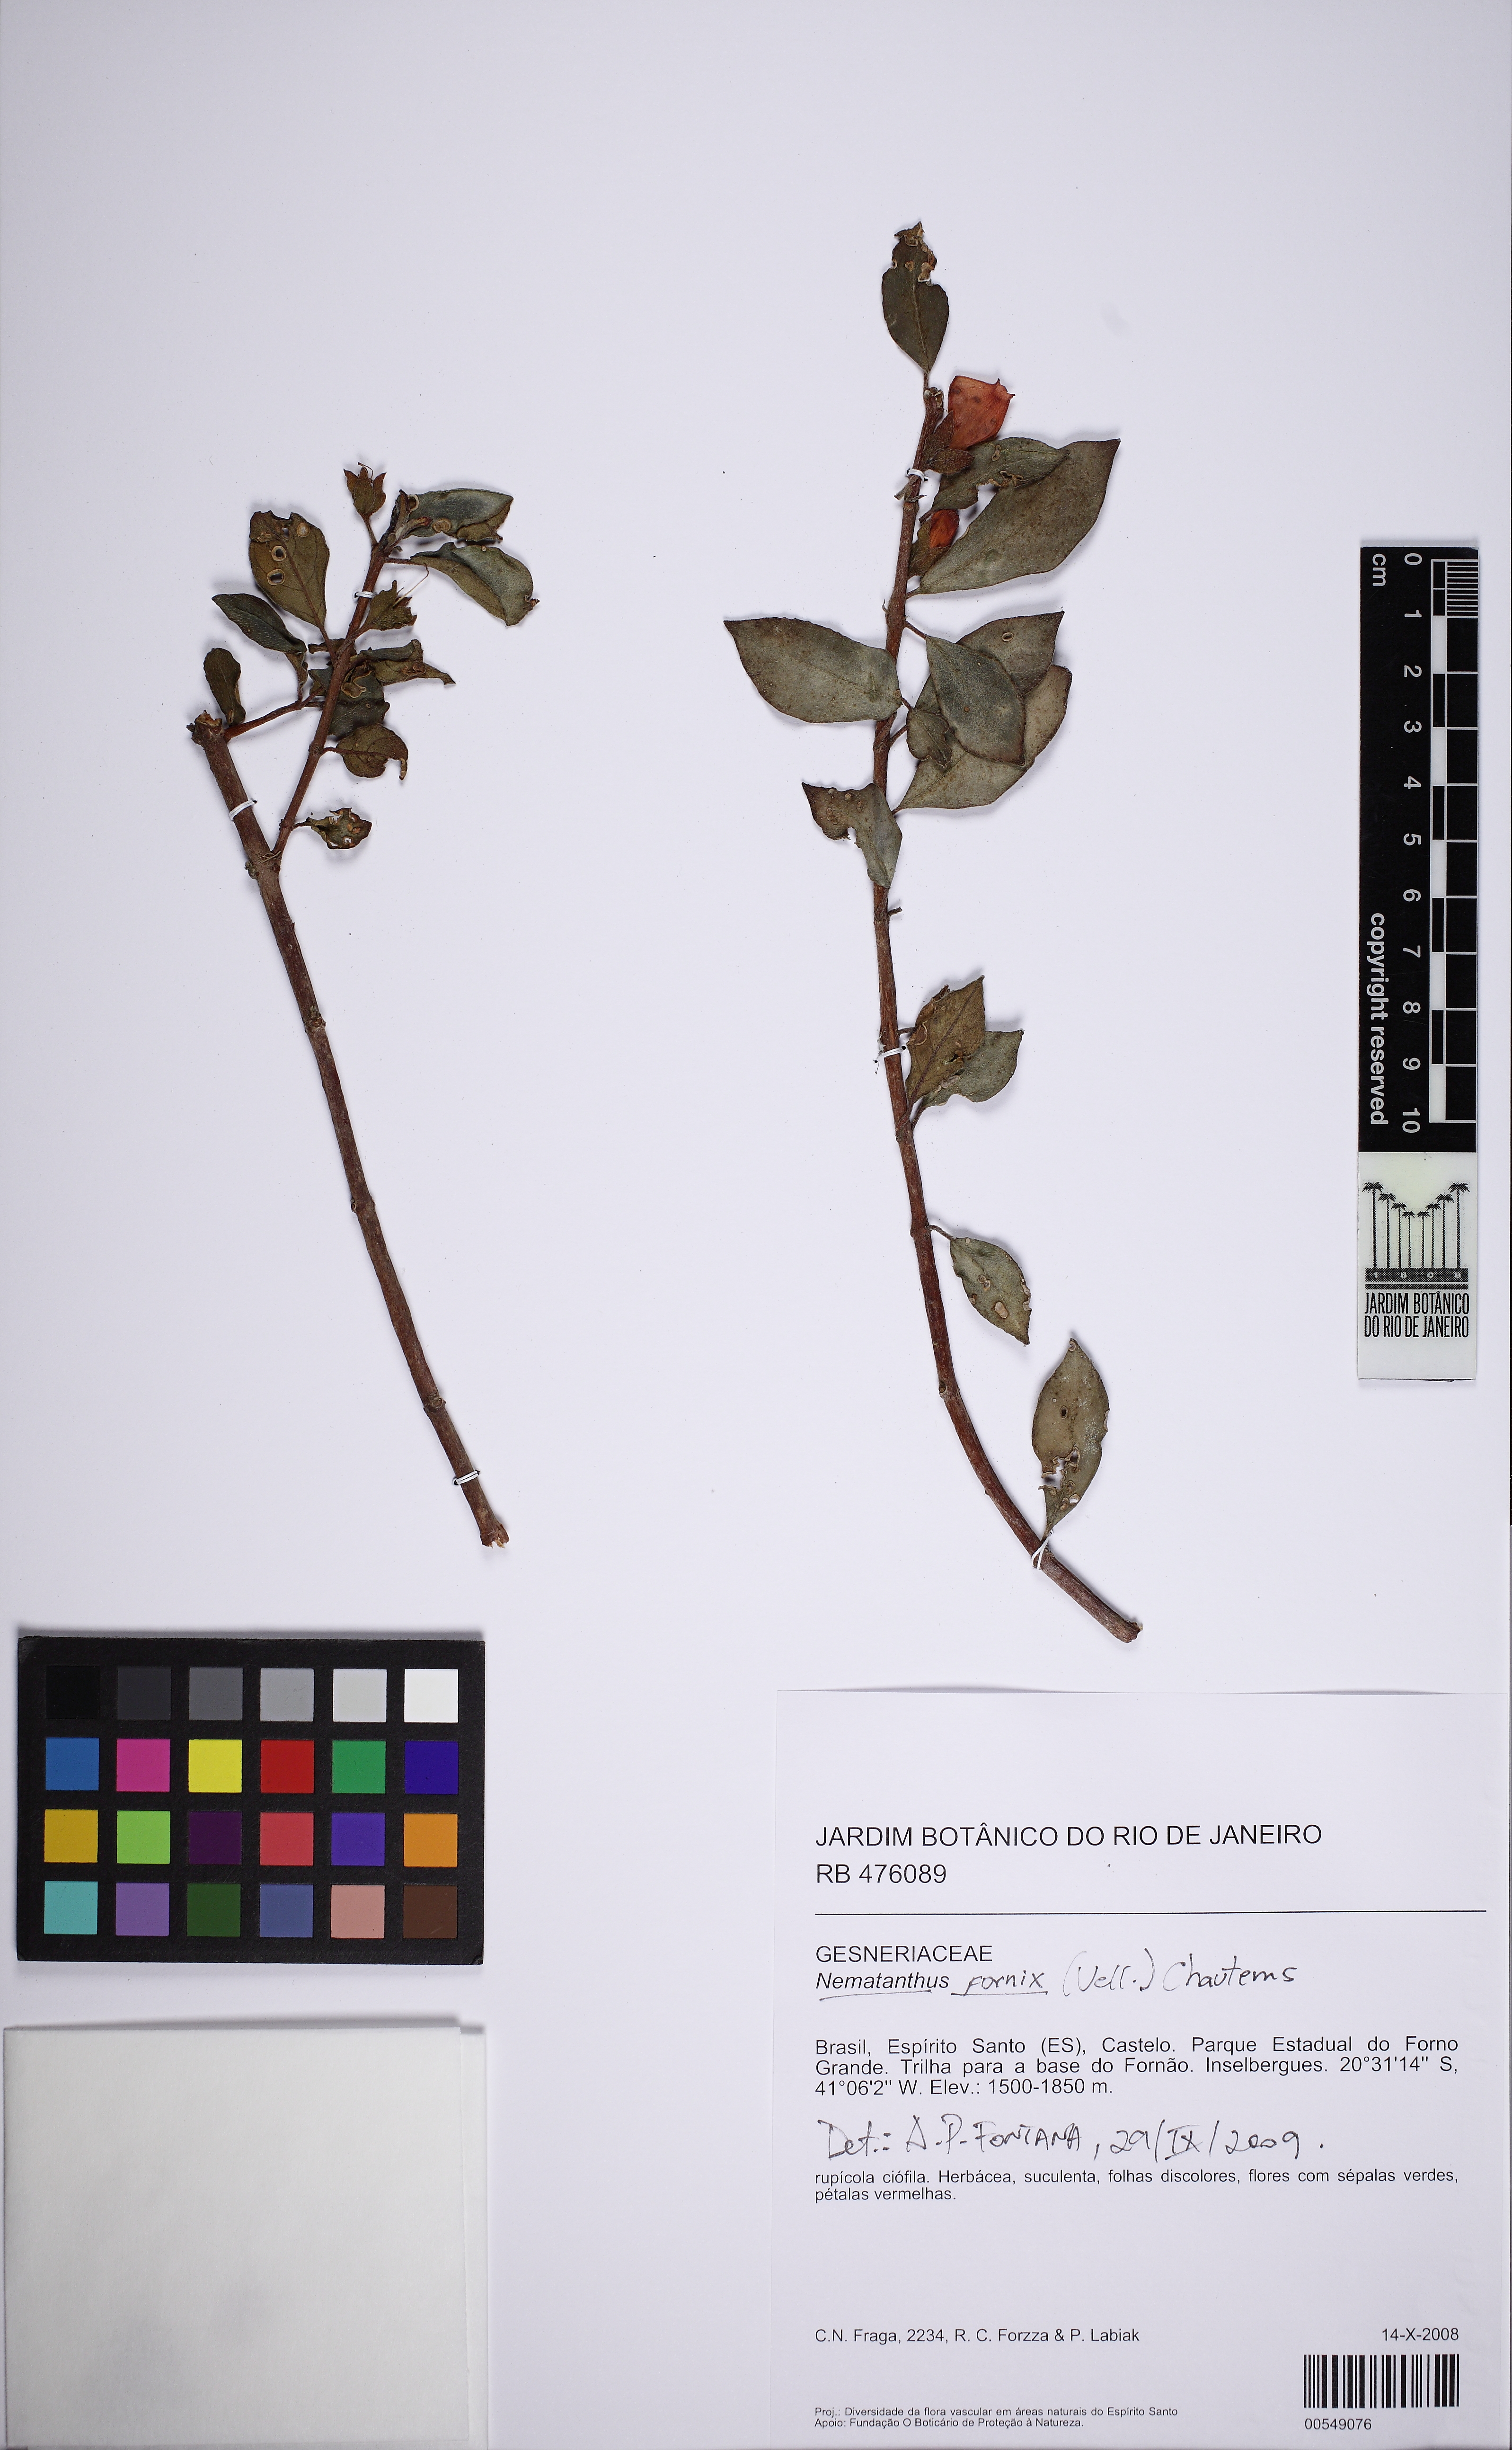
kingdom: Plantae
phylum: Tracheophyta
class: Magnoliopsida
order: Lamiales
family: Gesneriaceae
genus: Nematanthus
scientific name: Nematanthus fornix
